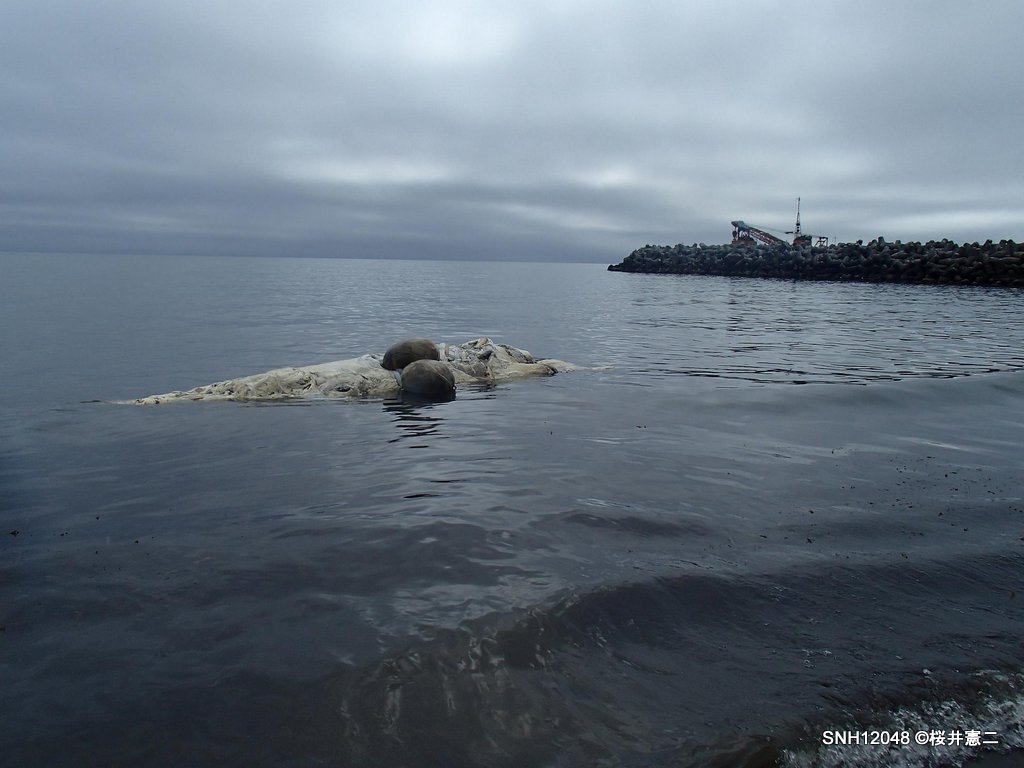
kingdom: Animalia
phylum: Chordata
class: Mammalia
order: Cetacea
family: Balaenopteridae
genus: Balaenoptera
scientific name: Balaenoptera acutorostrata
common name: Minke whale
